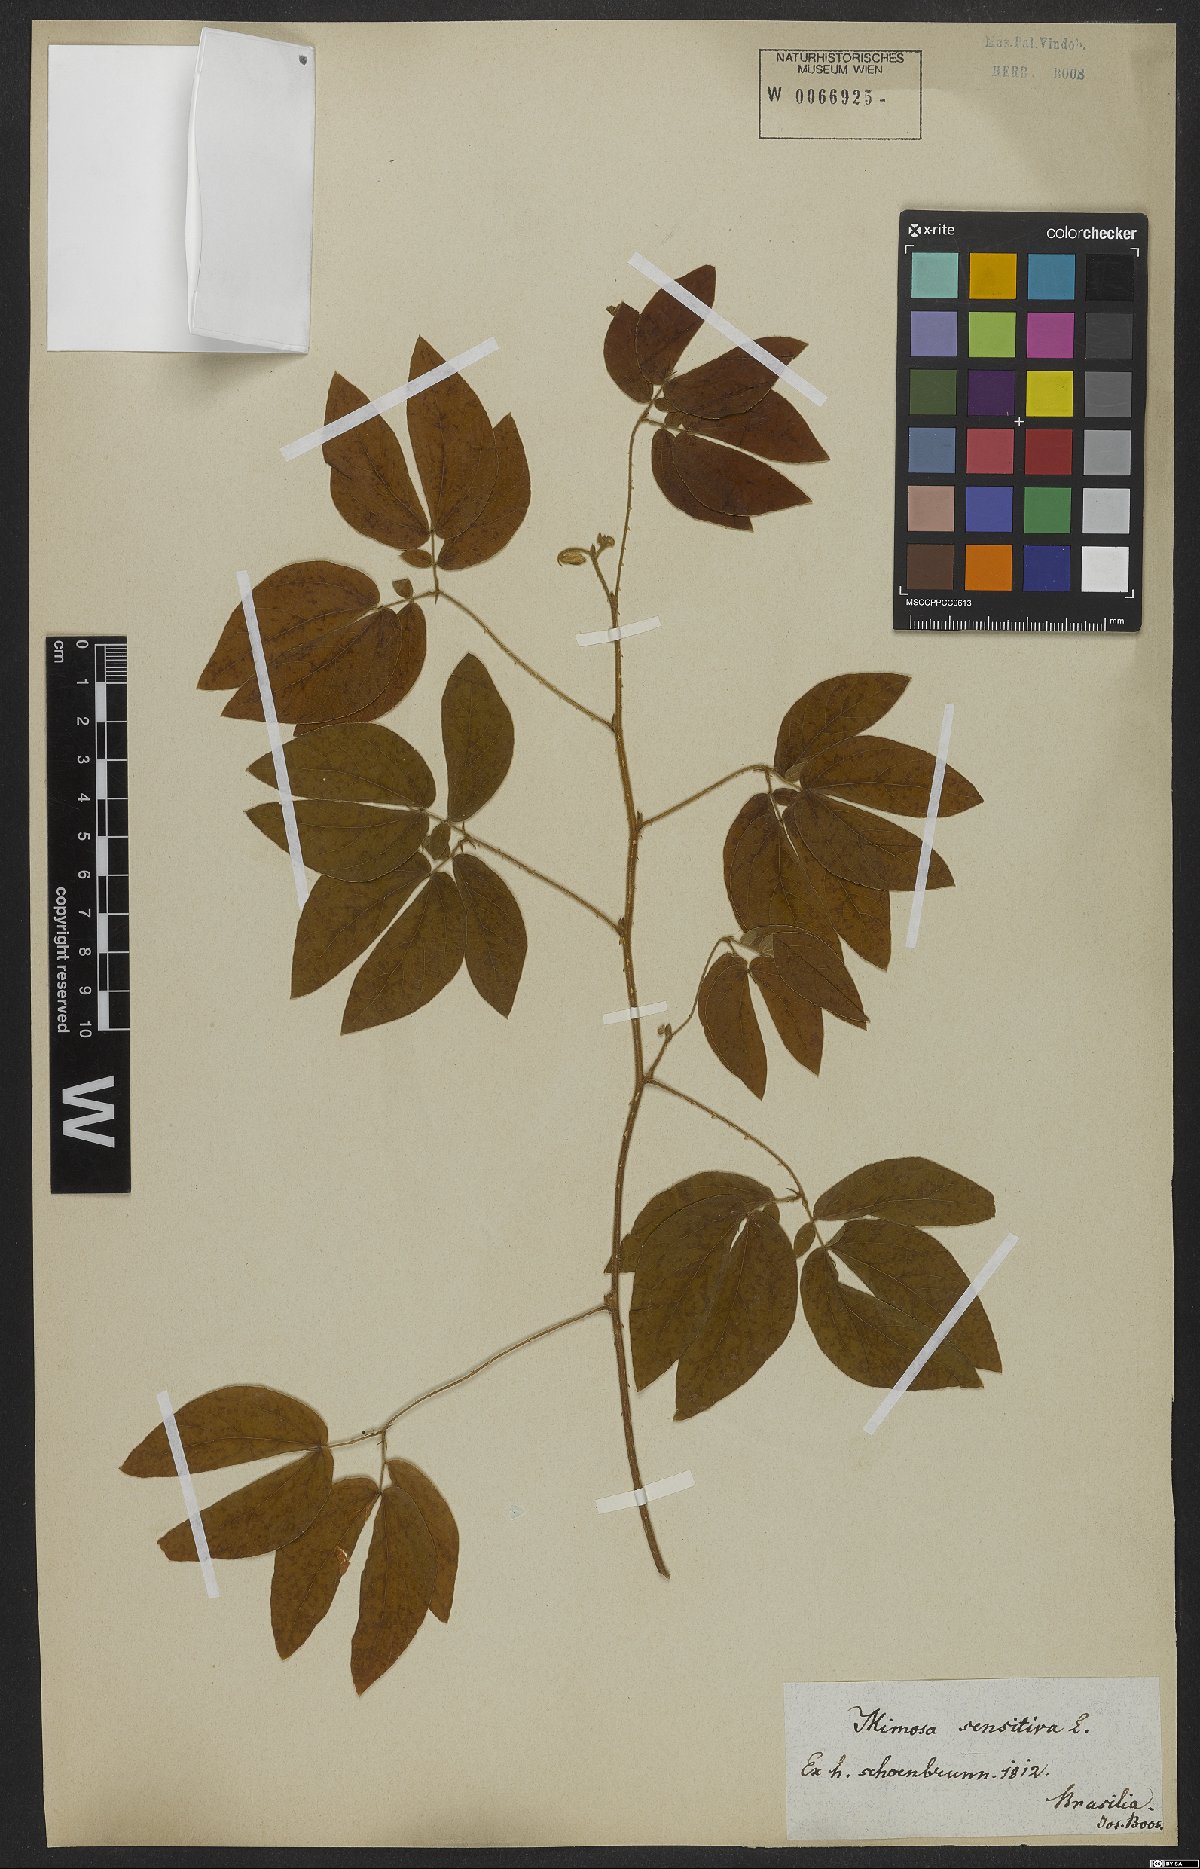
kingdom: Plantae
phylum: Tracheophyta
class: Magnoliopsida
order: Fabales
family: Fabaceae
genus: Mimosa
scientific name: Mimosa sensitiva
